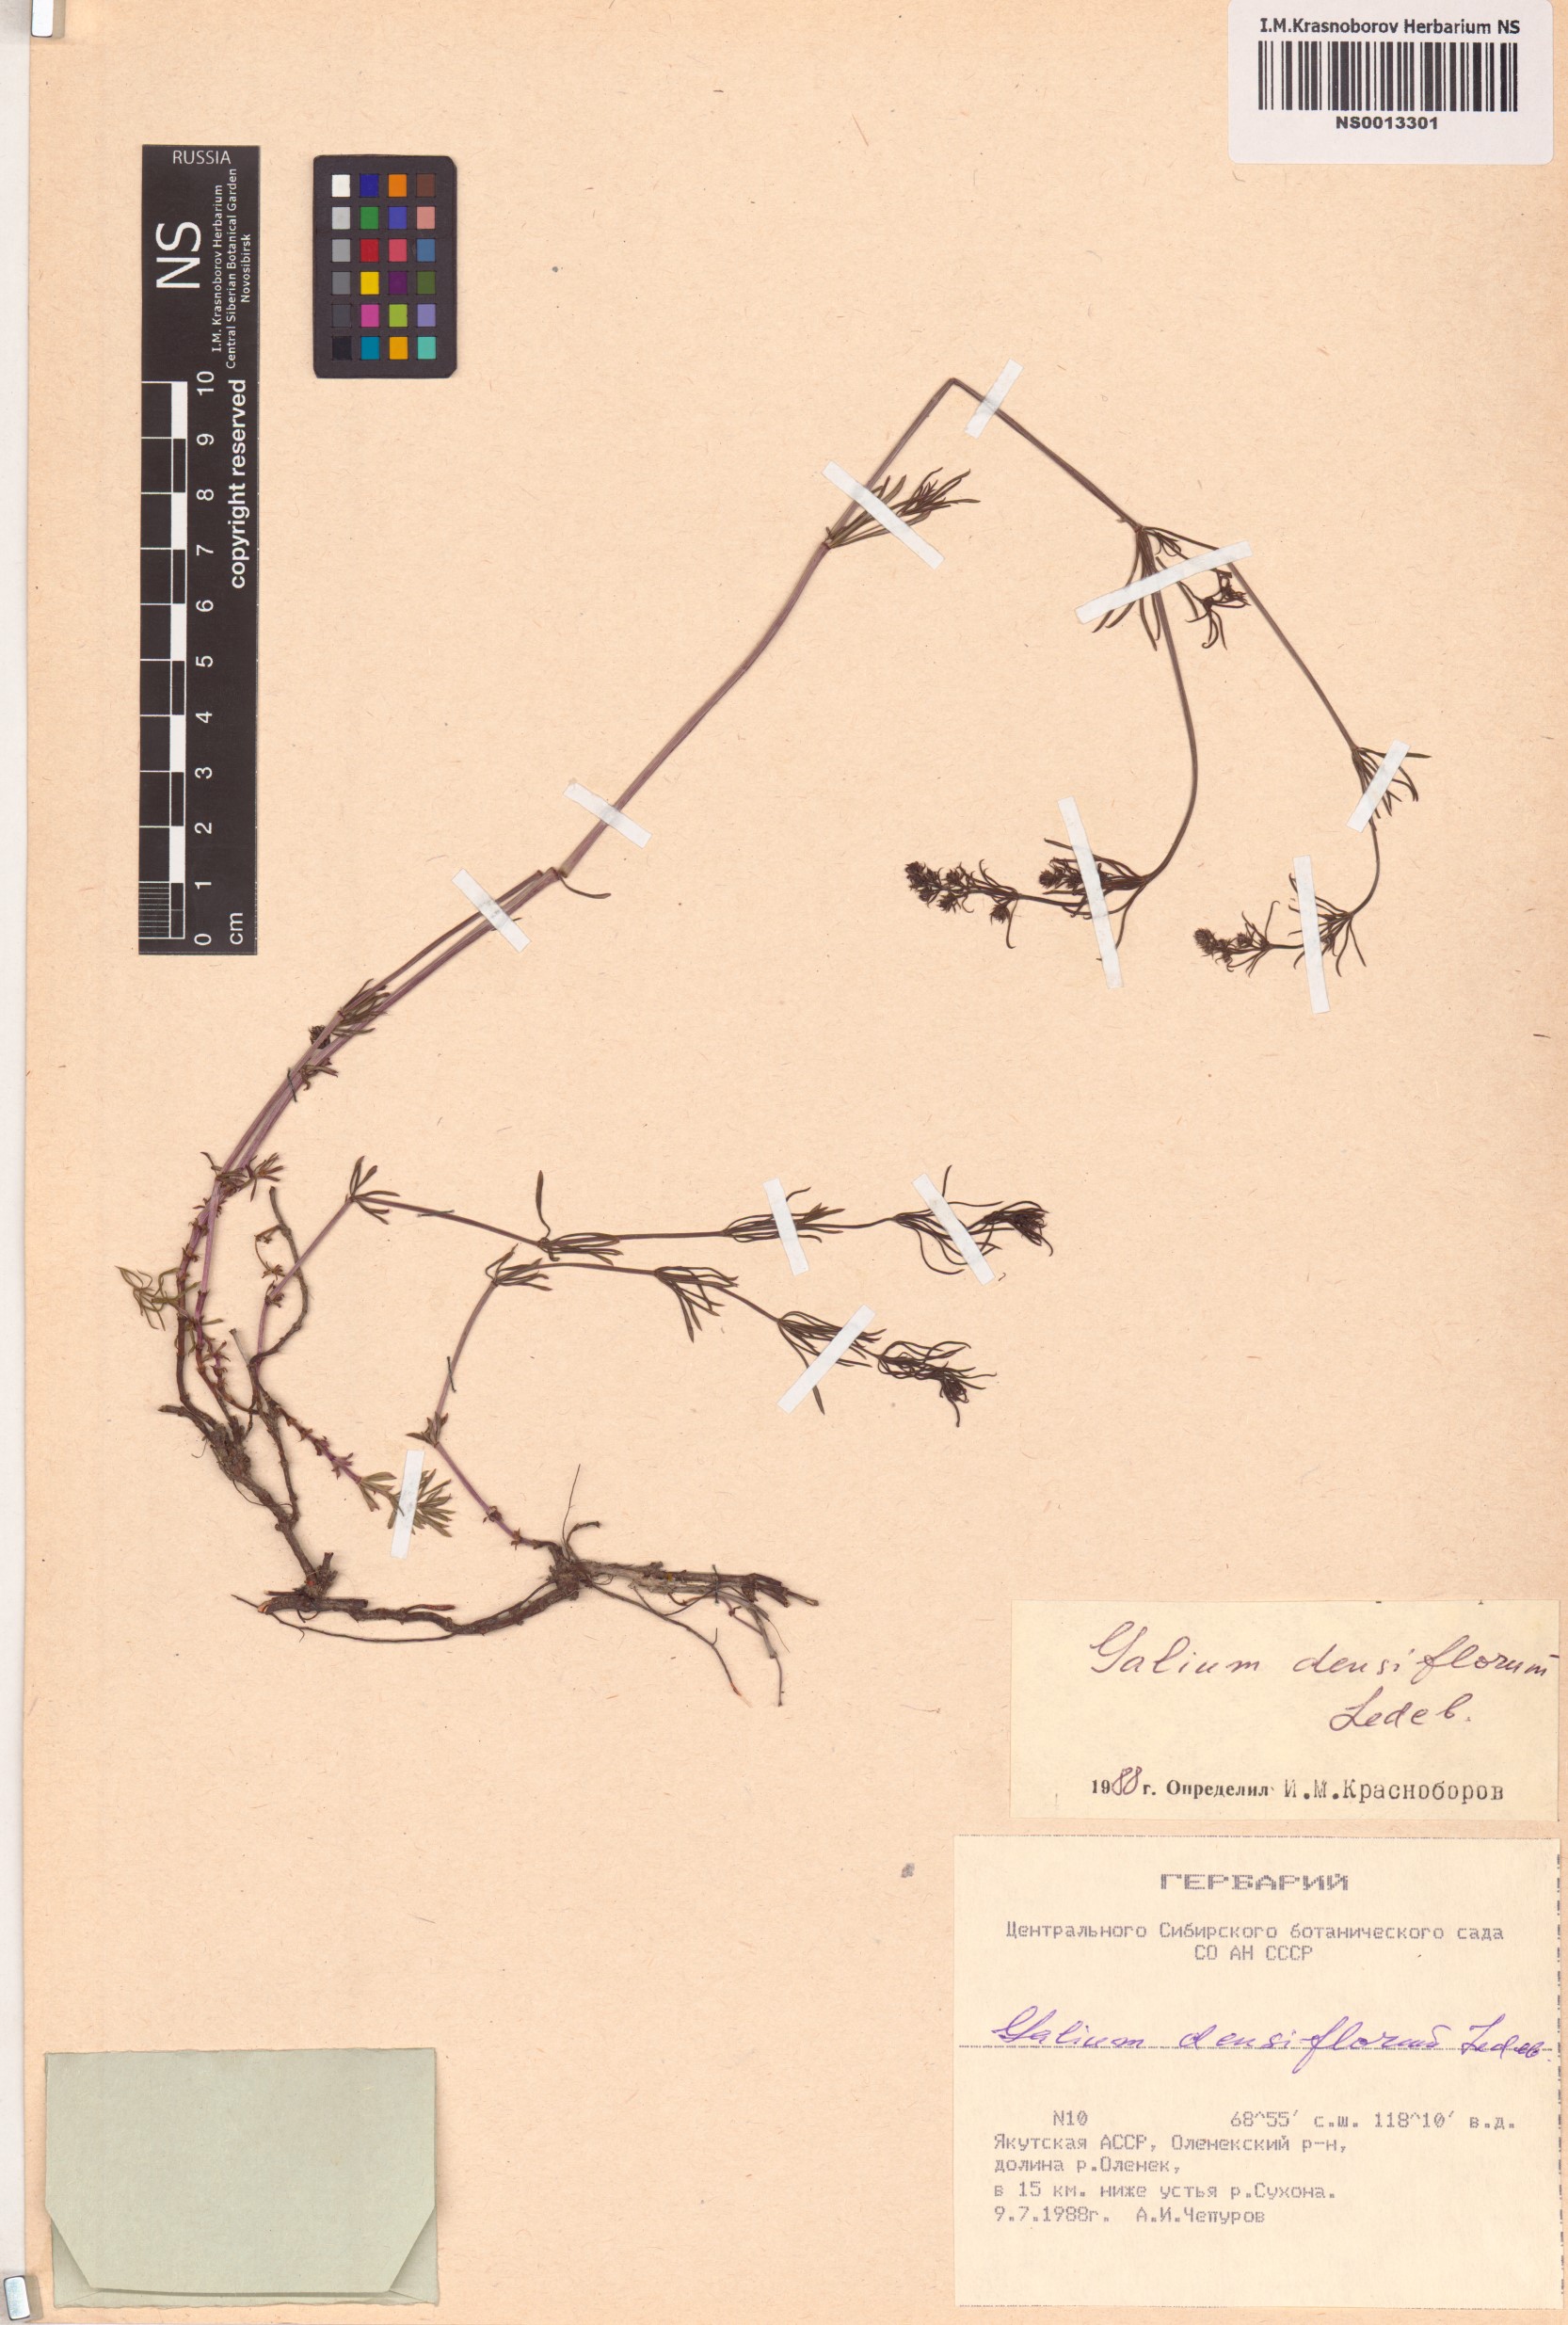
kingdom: Plantae
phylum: Tracheophyta
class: Magnoliopsida
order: Gentianales
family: Rubiaceae
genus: Galium
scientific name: Galium densiflorum
